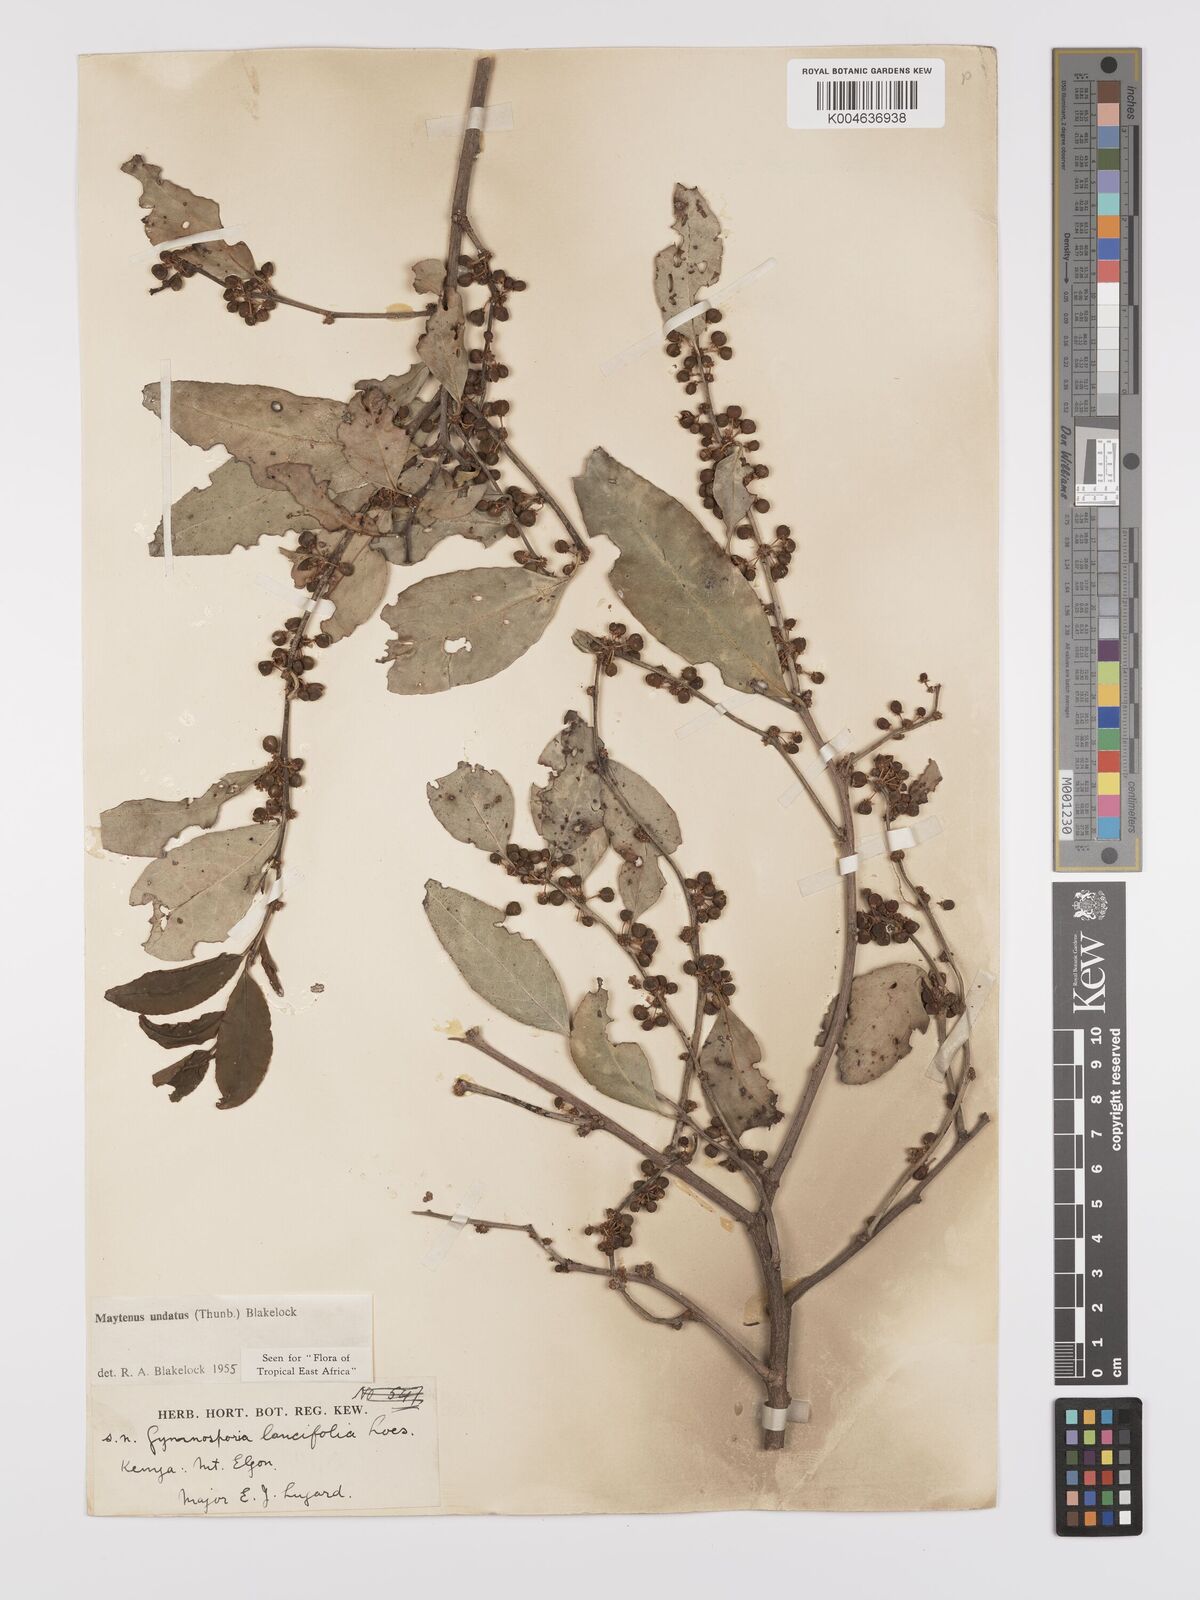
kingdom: Plantae
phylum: Tracheophyta
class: Magnoliopsida
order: Celastrales
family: Celastraceae
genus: Gymnosporia
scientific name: Gymnosporia undata
